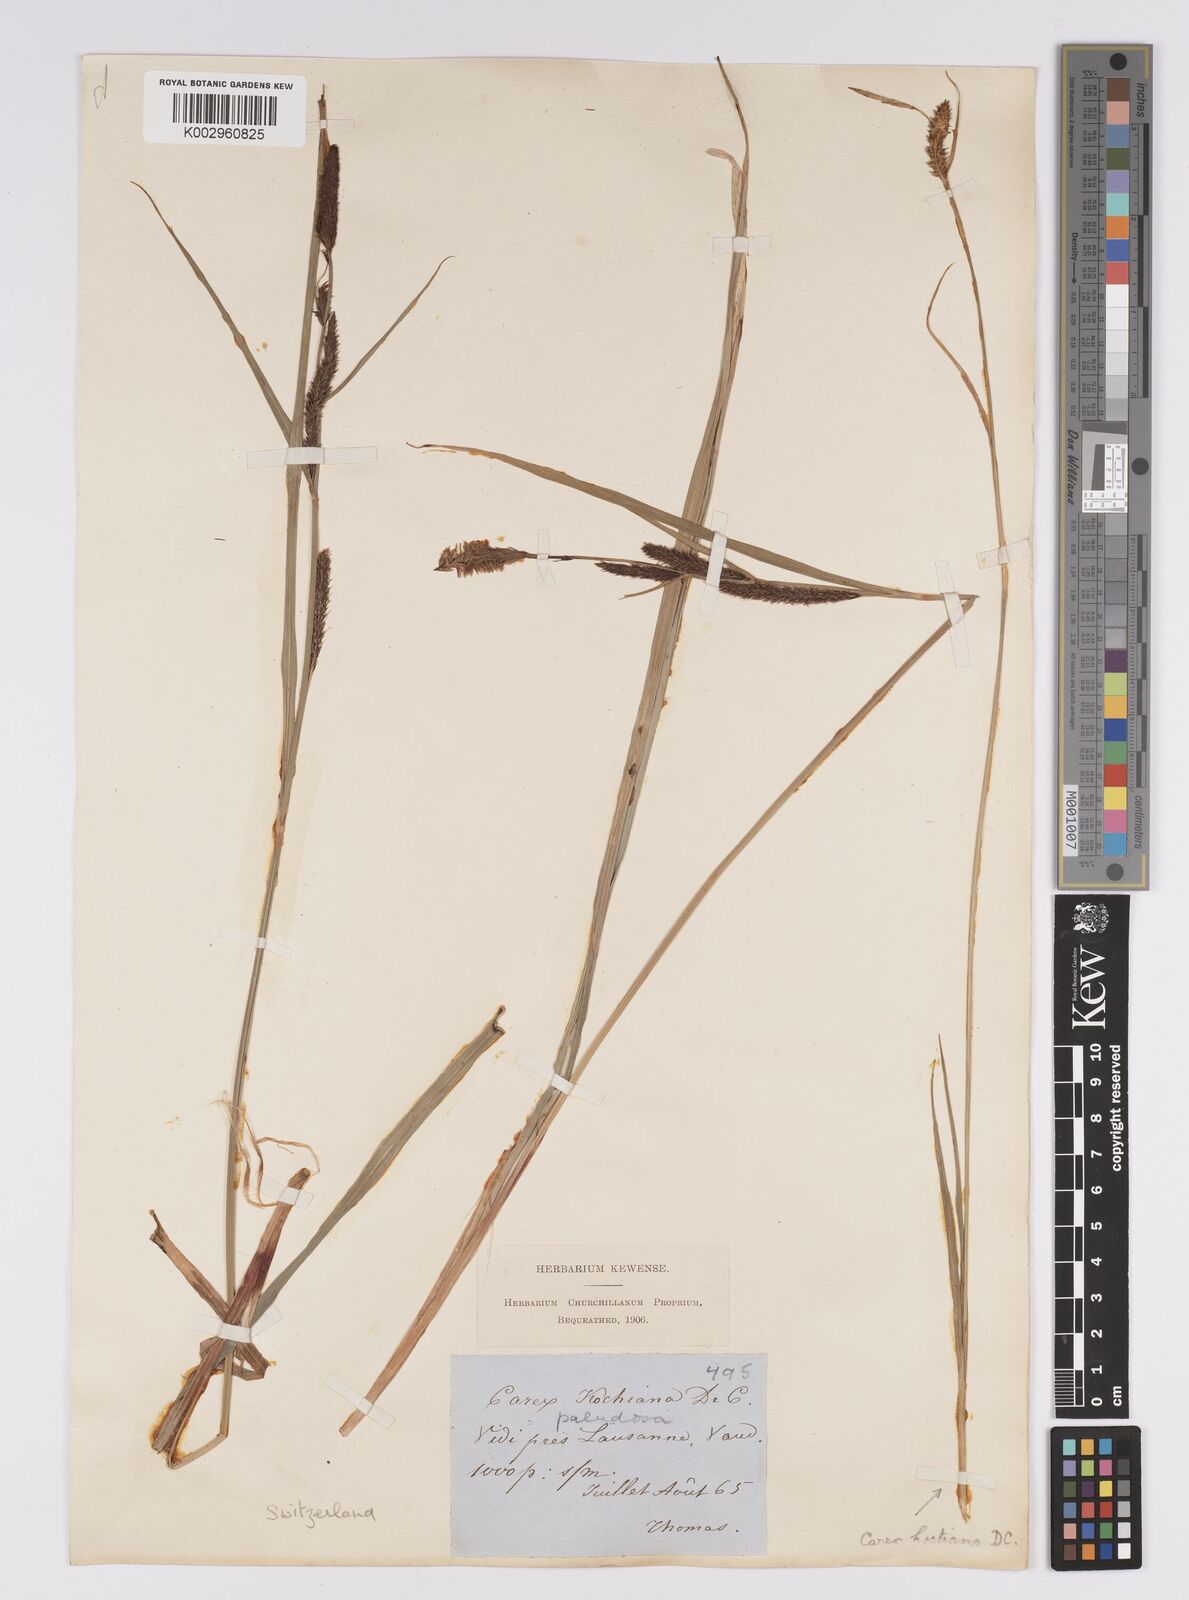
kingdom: Plantae
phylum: Tracheophyta
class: Liliopsida
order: Poales
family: Cyperaceae
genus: Carex
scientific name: Carex acutiformis
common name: Lesser pond-sedge
